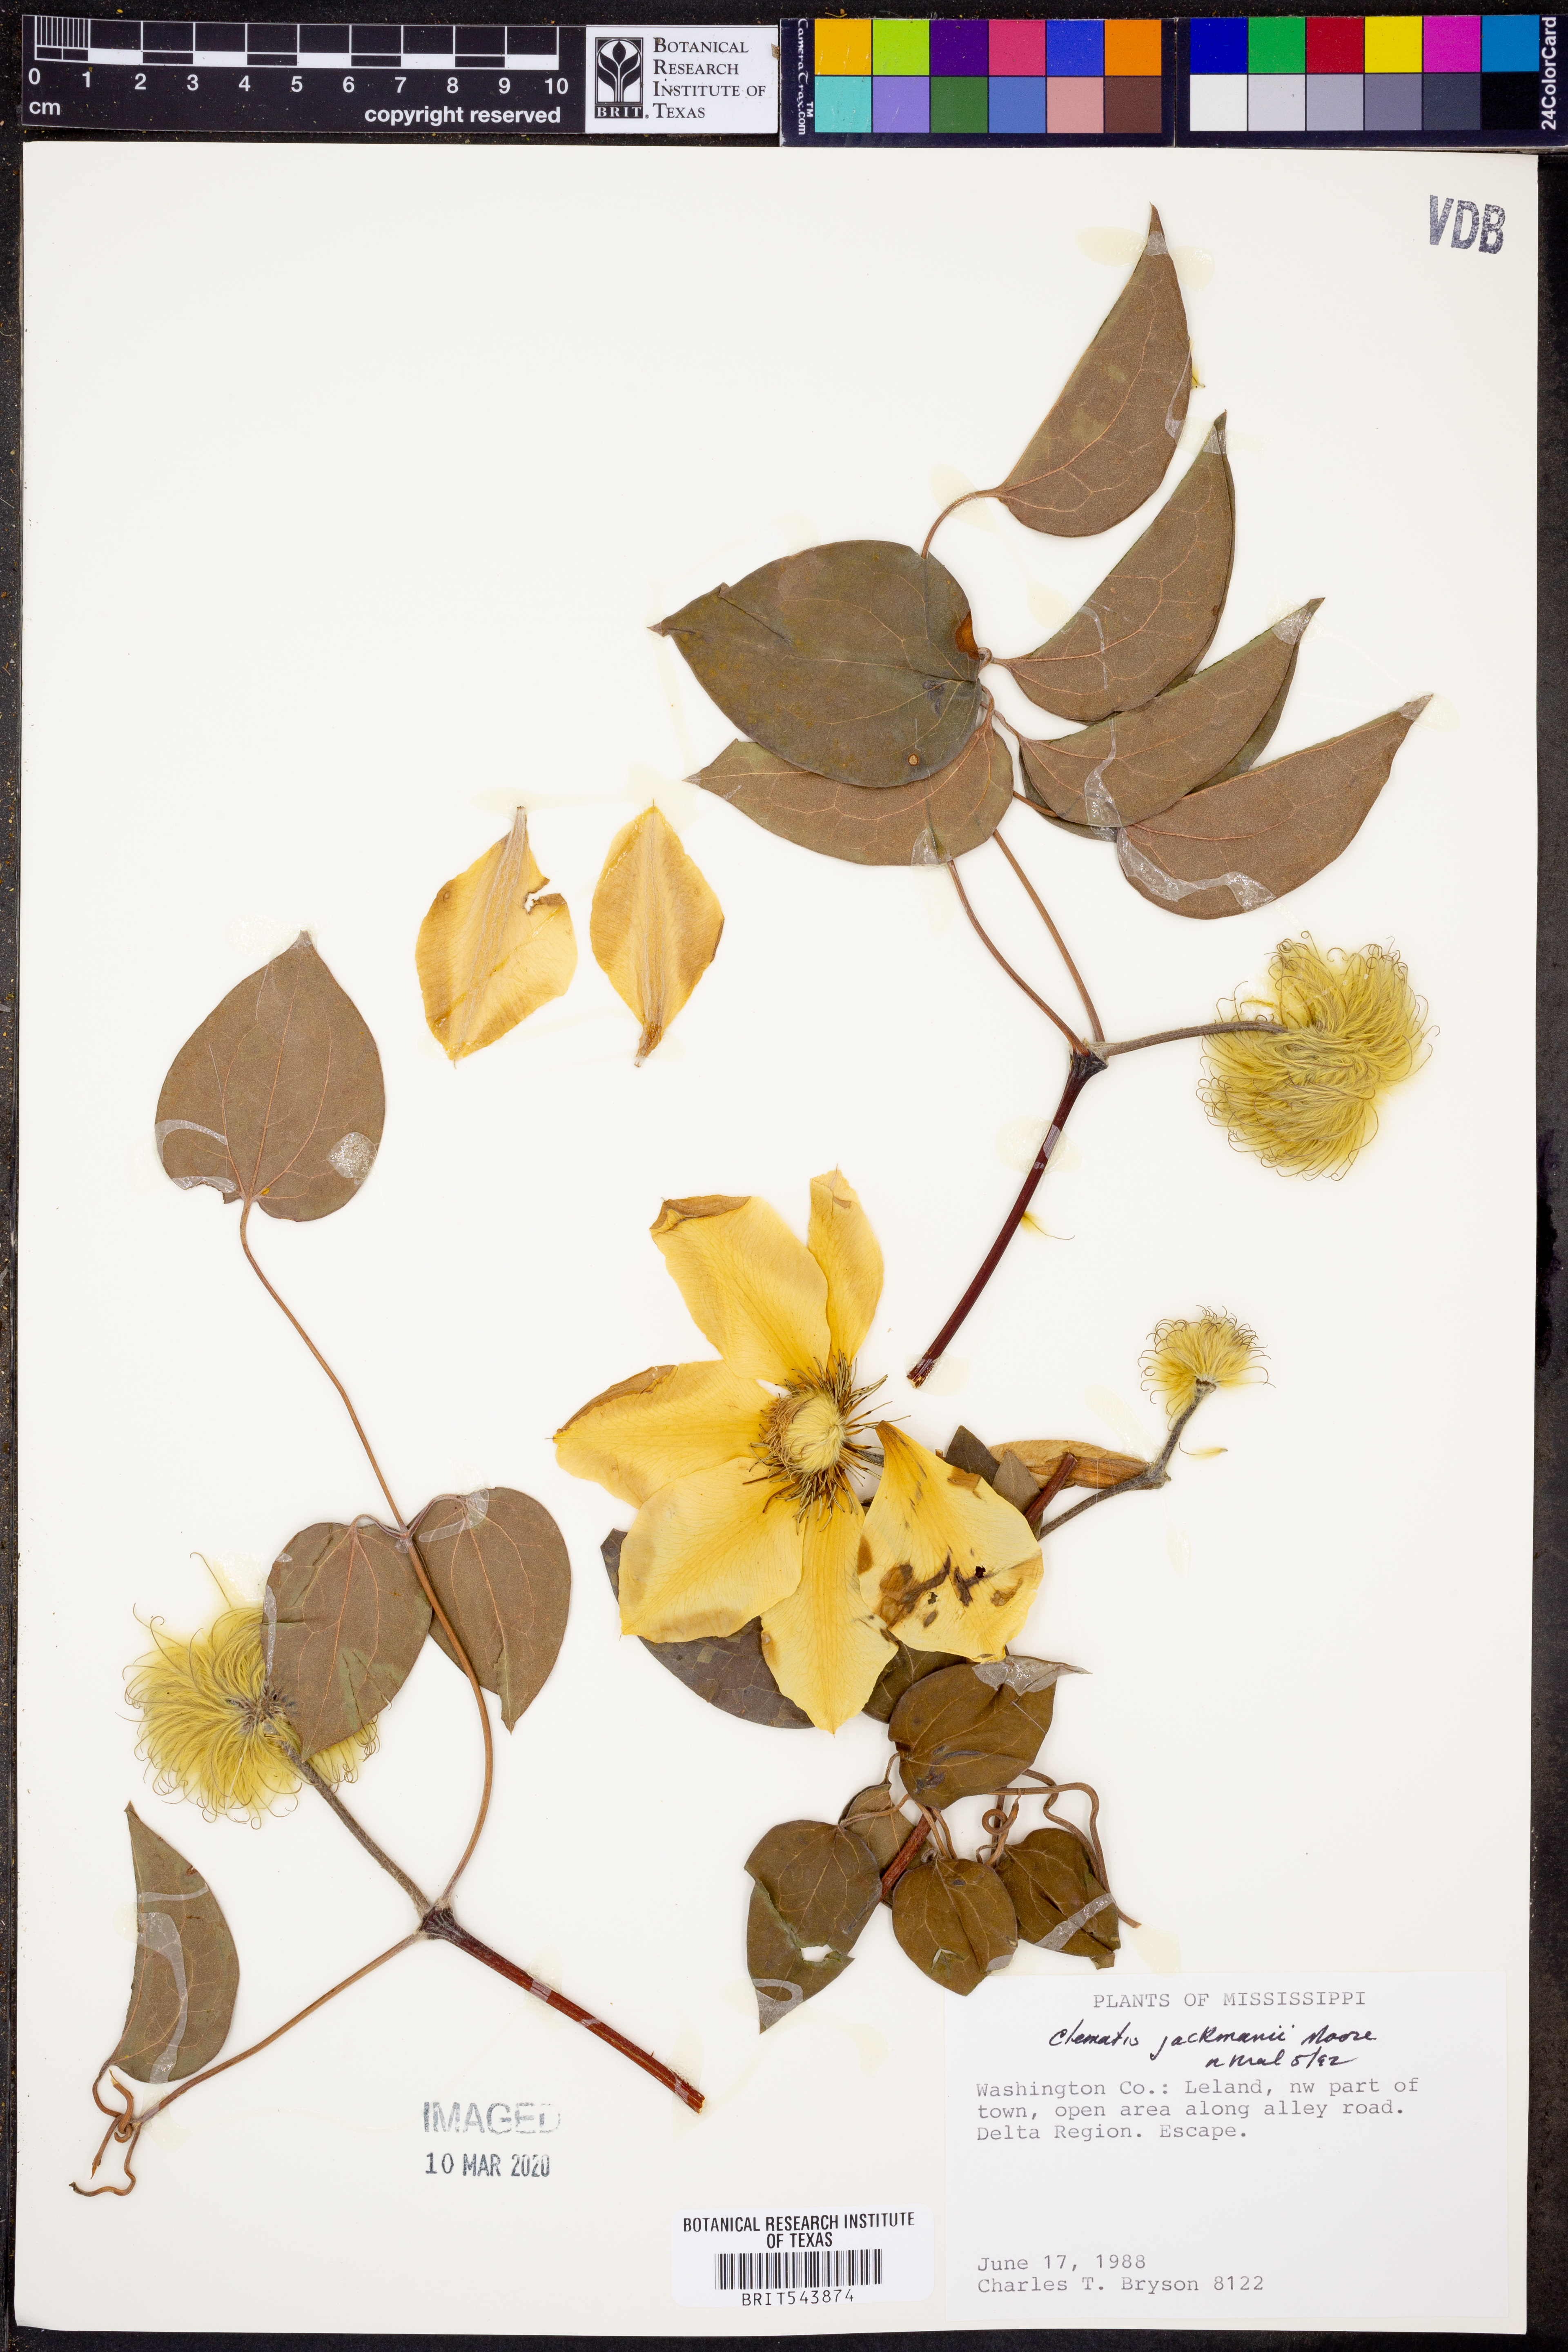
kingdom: Plantae
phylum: Tracheophyta
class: Magnoliopsida
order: Ranunculales
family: Ranunculaceae
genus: Clematis
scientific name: Clematis jackmanii
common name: Leather flower
